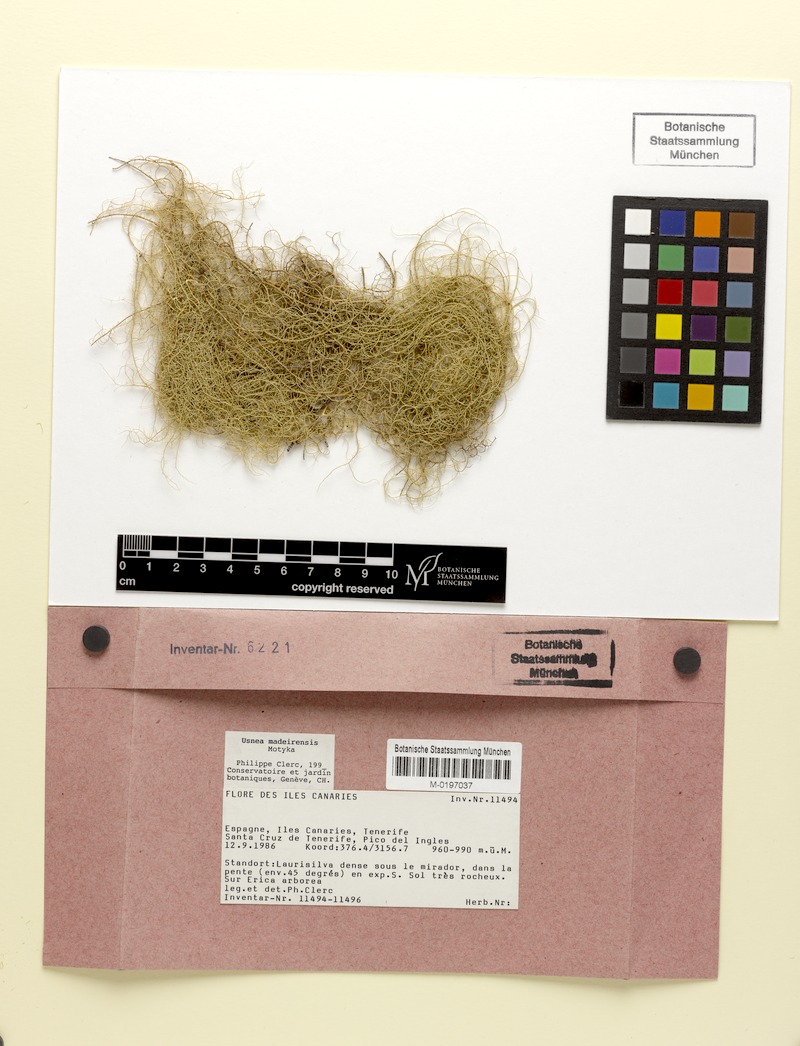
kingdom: Fungi
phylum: Ascomycota
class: Lecanoromycetes
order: Lecanorales
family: Parmeliaceae
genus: Usnea
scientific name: Usnea silesiaca
